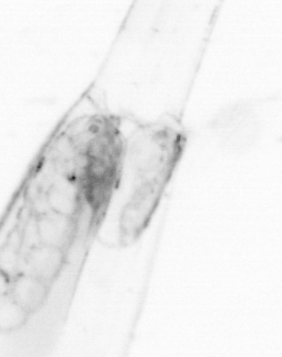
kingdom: Animalia
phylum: Chaetognatha
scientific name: Chaetognatha
